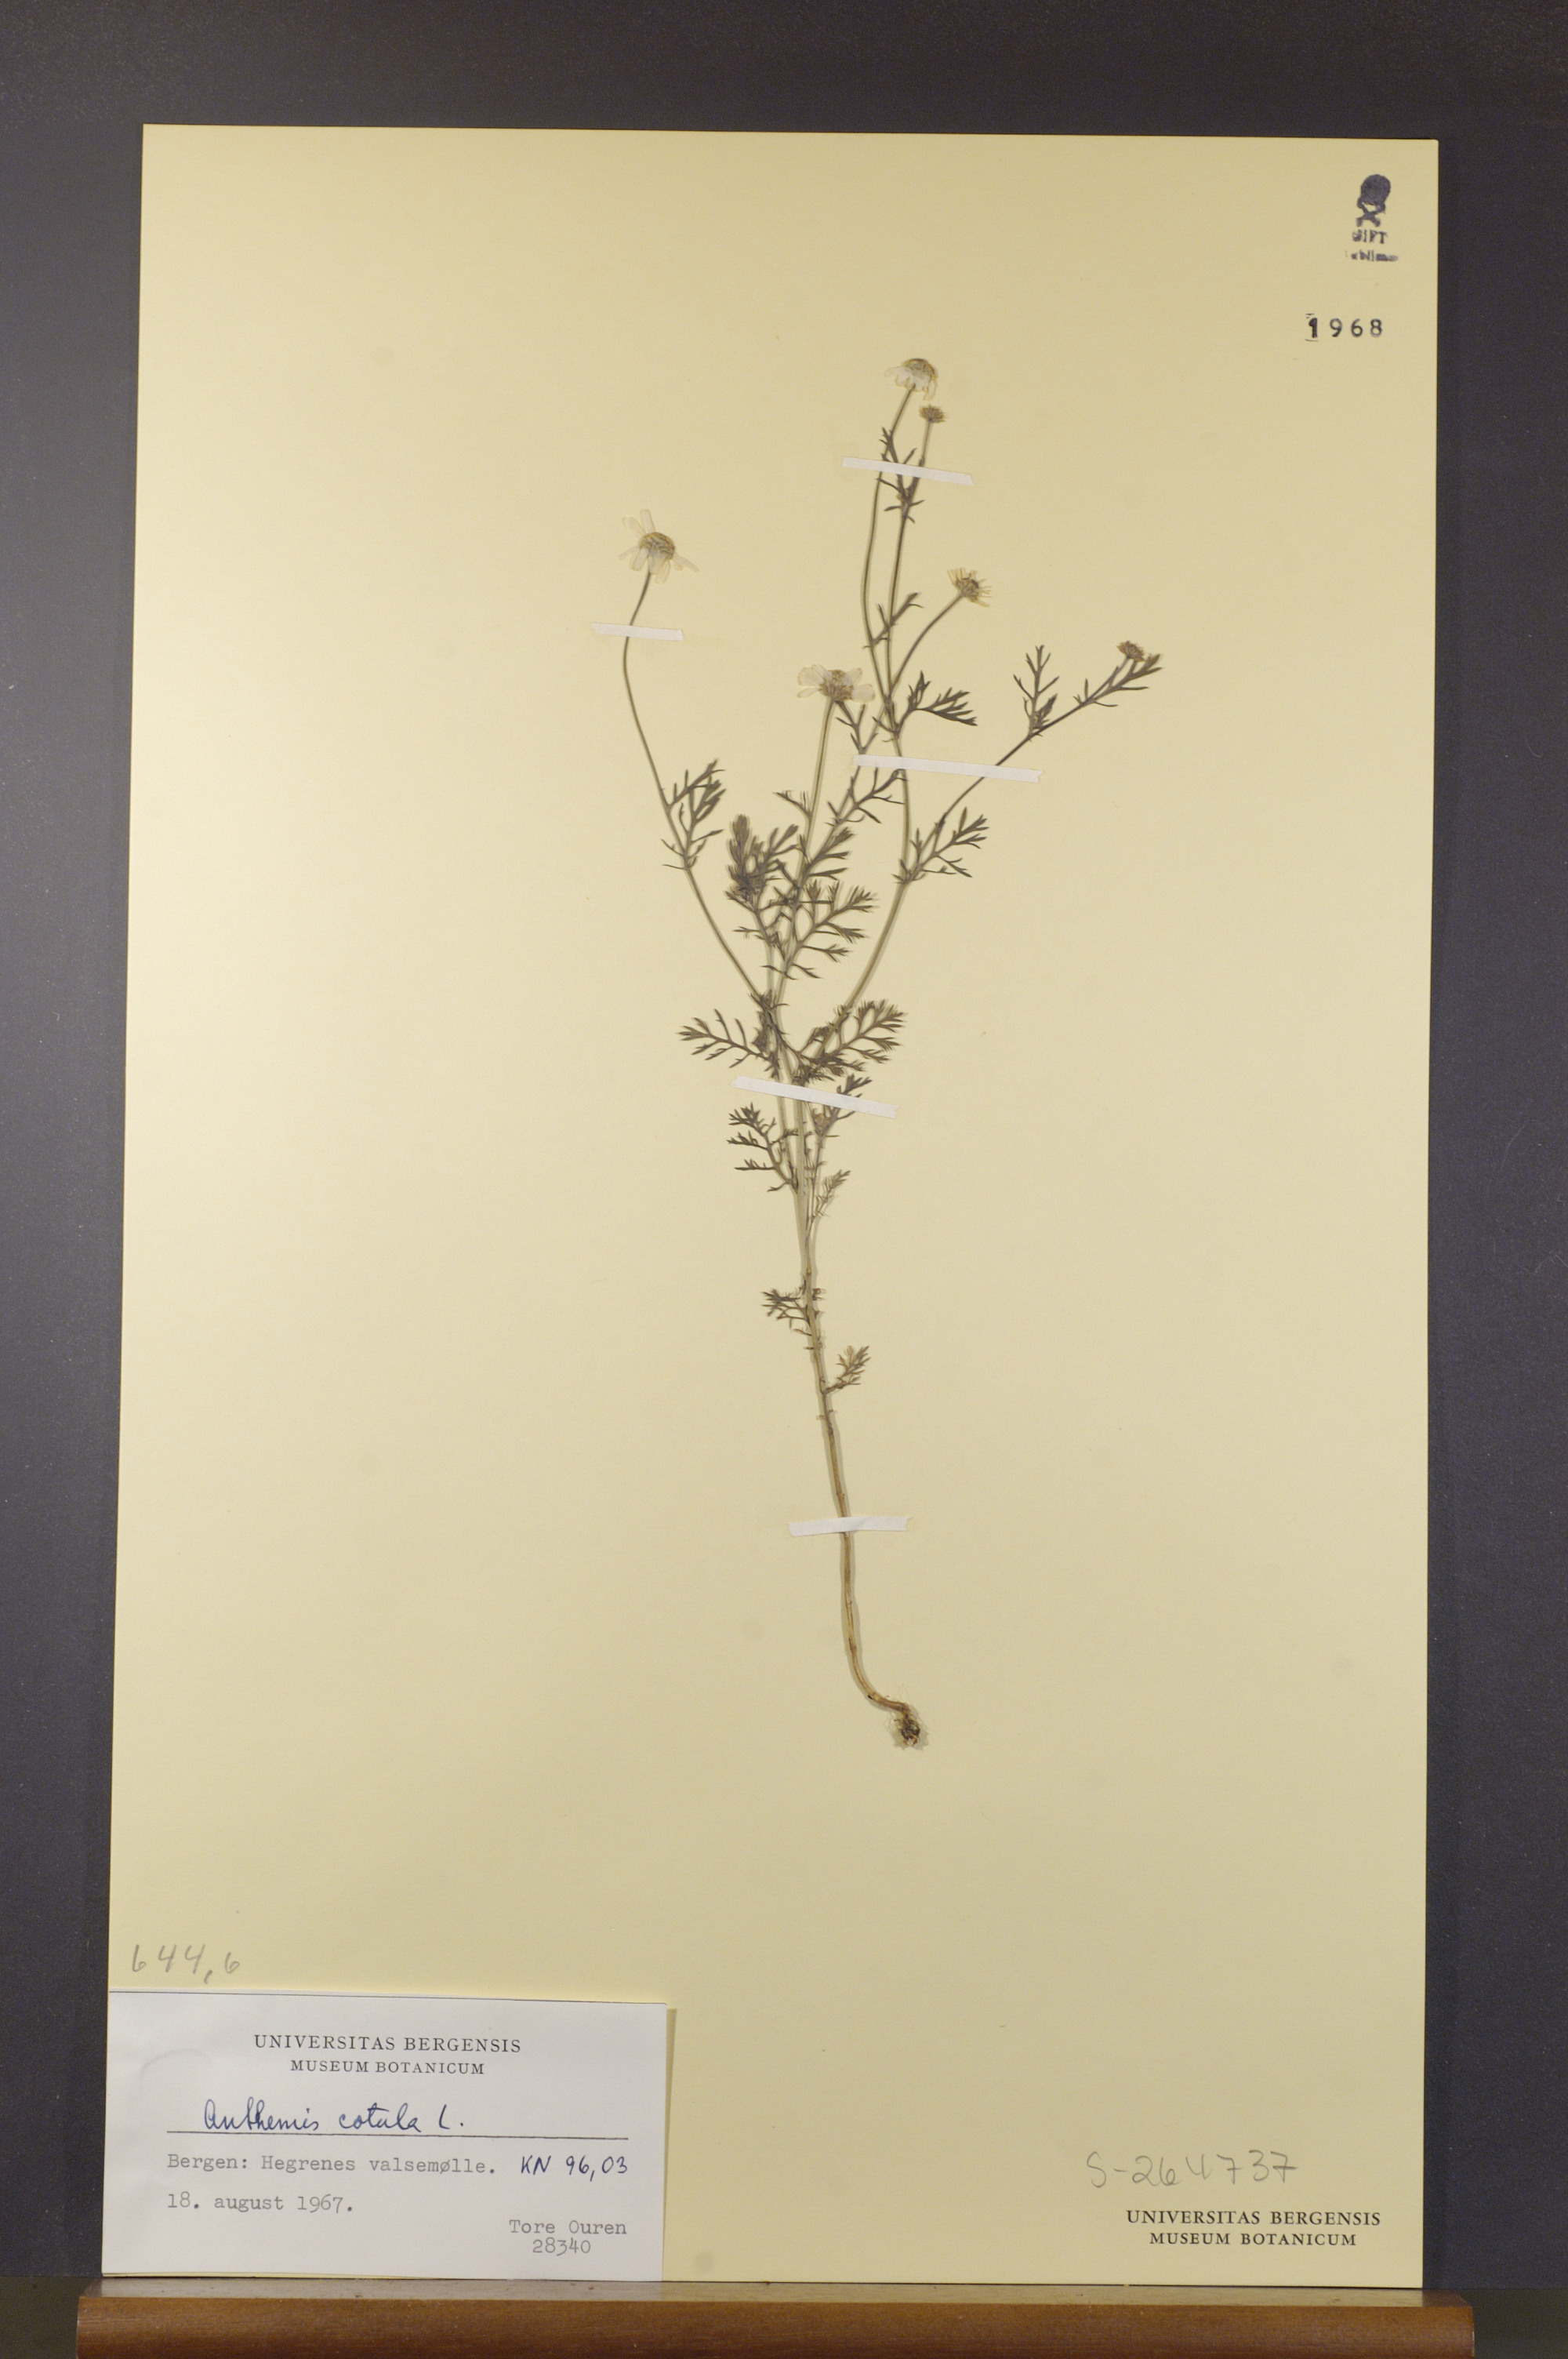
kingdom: Plantae
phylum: Tracheophyta
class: Magnoliopsida
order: Asterales
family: Asteraceae
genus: Anthemis
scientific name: Anthemis cotula
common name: Stinking chamomile
